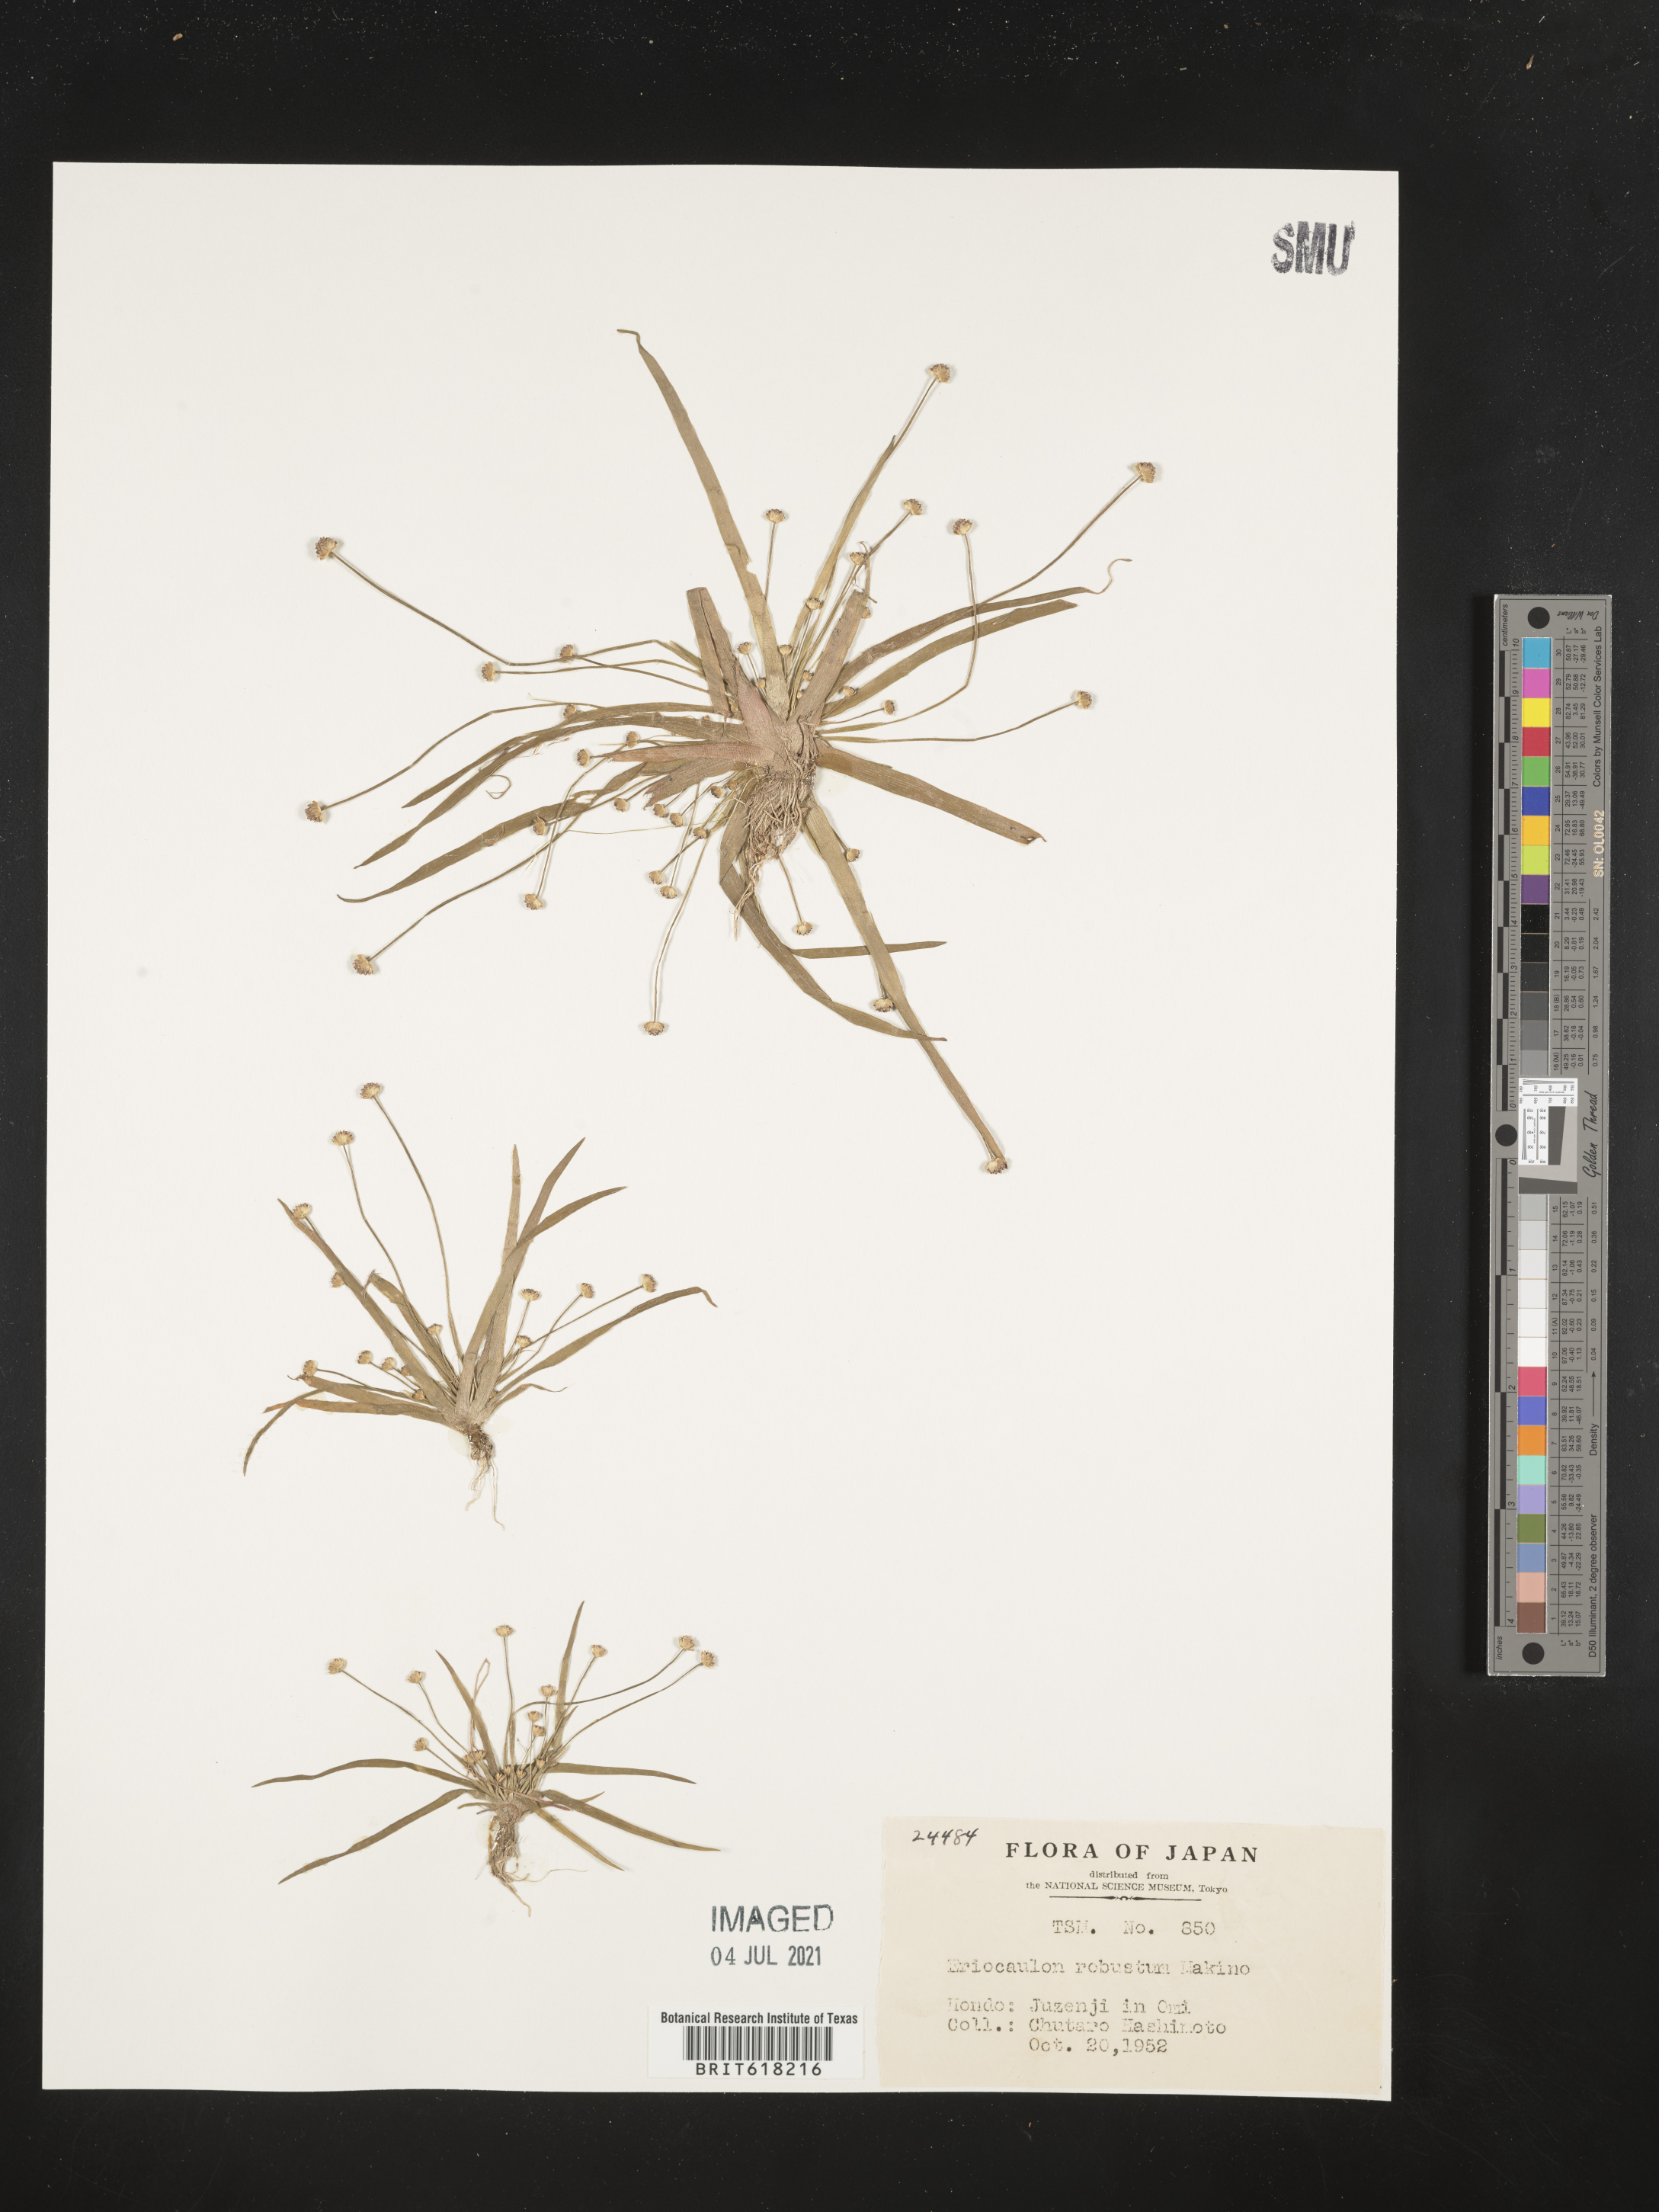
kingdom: Plantae
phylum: Tracheophyta
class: Liliopsida
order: Poales
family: Eriocaulaceae
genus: Eriocaulon
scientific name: Eriocaulon alpestre
